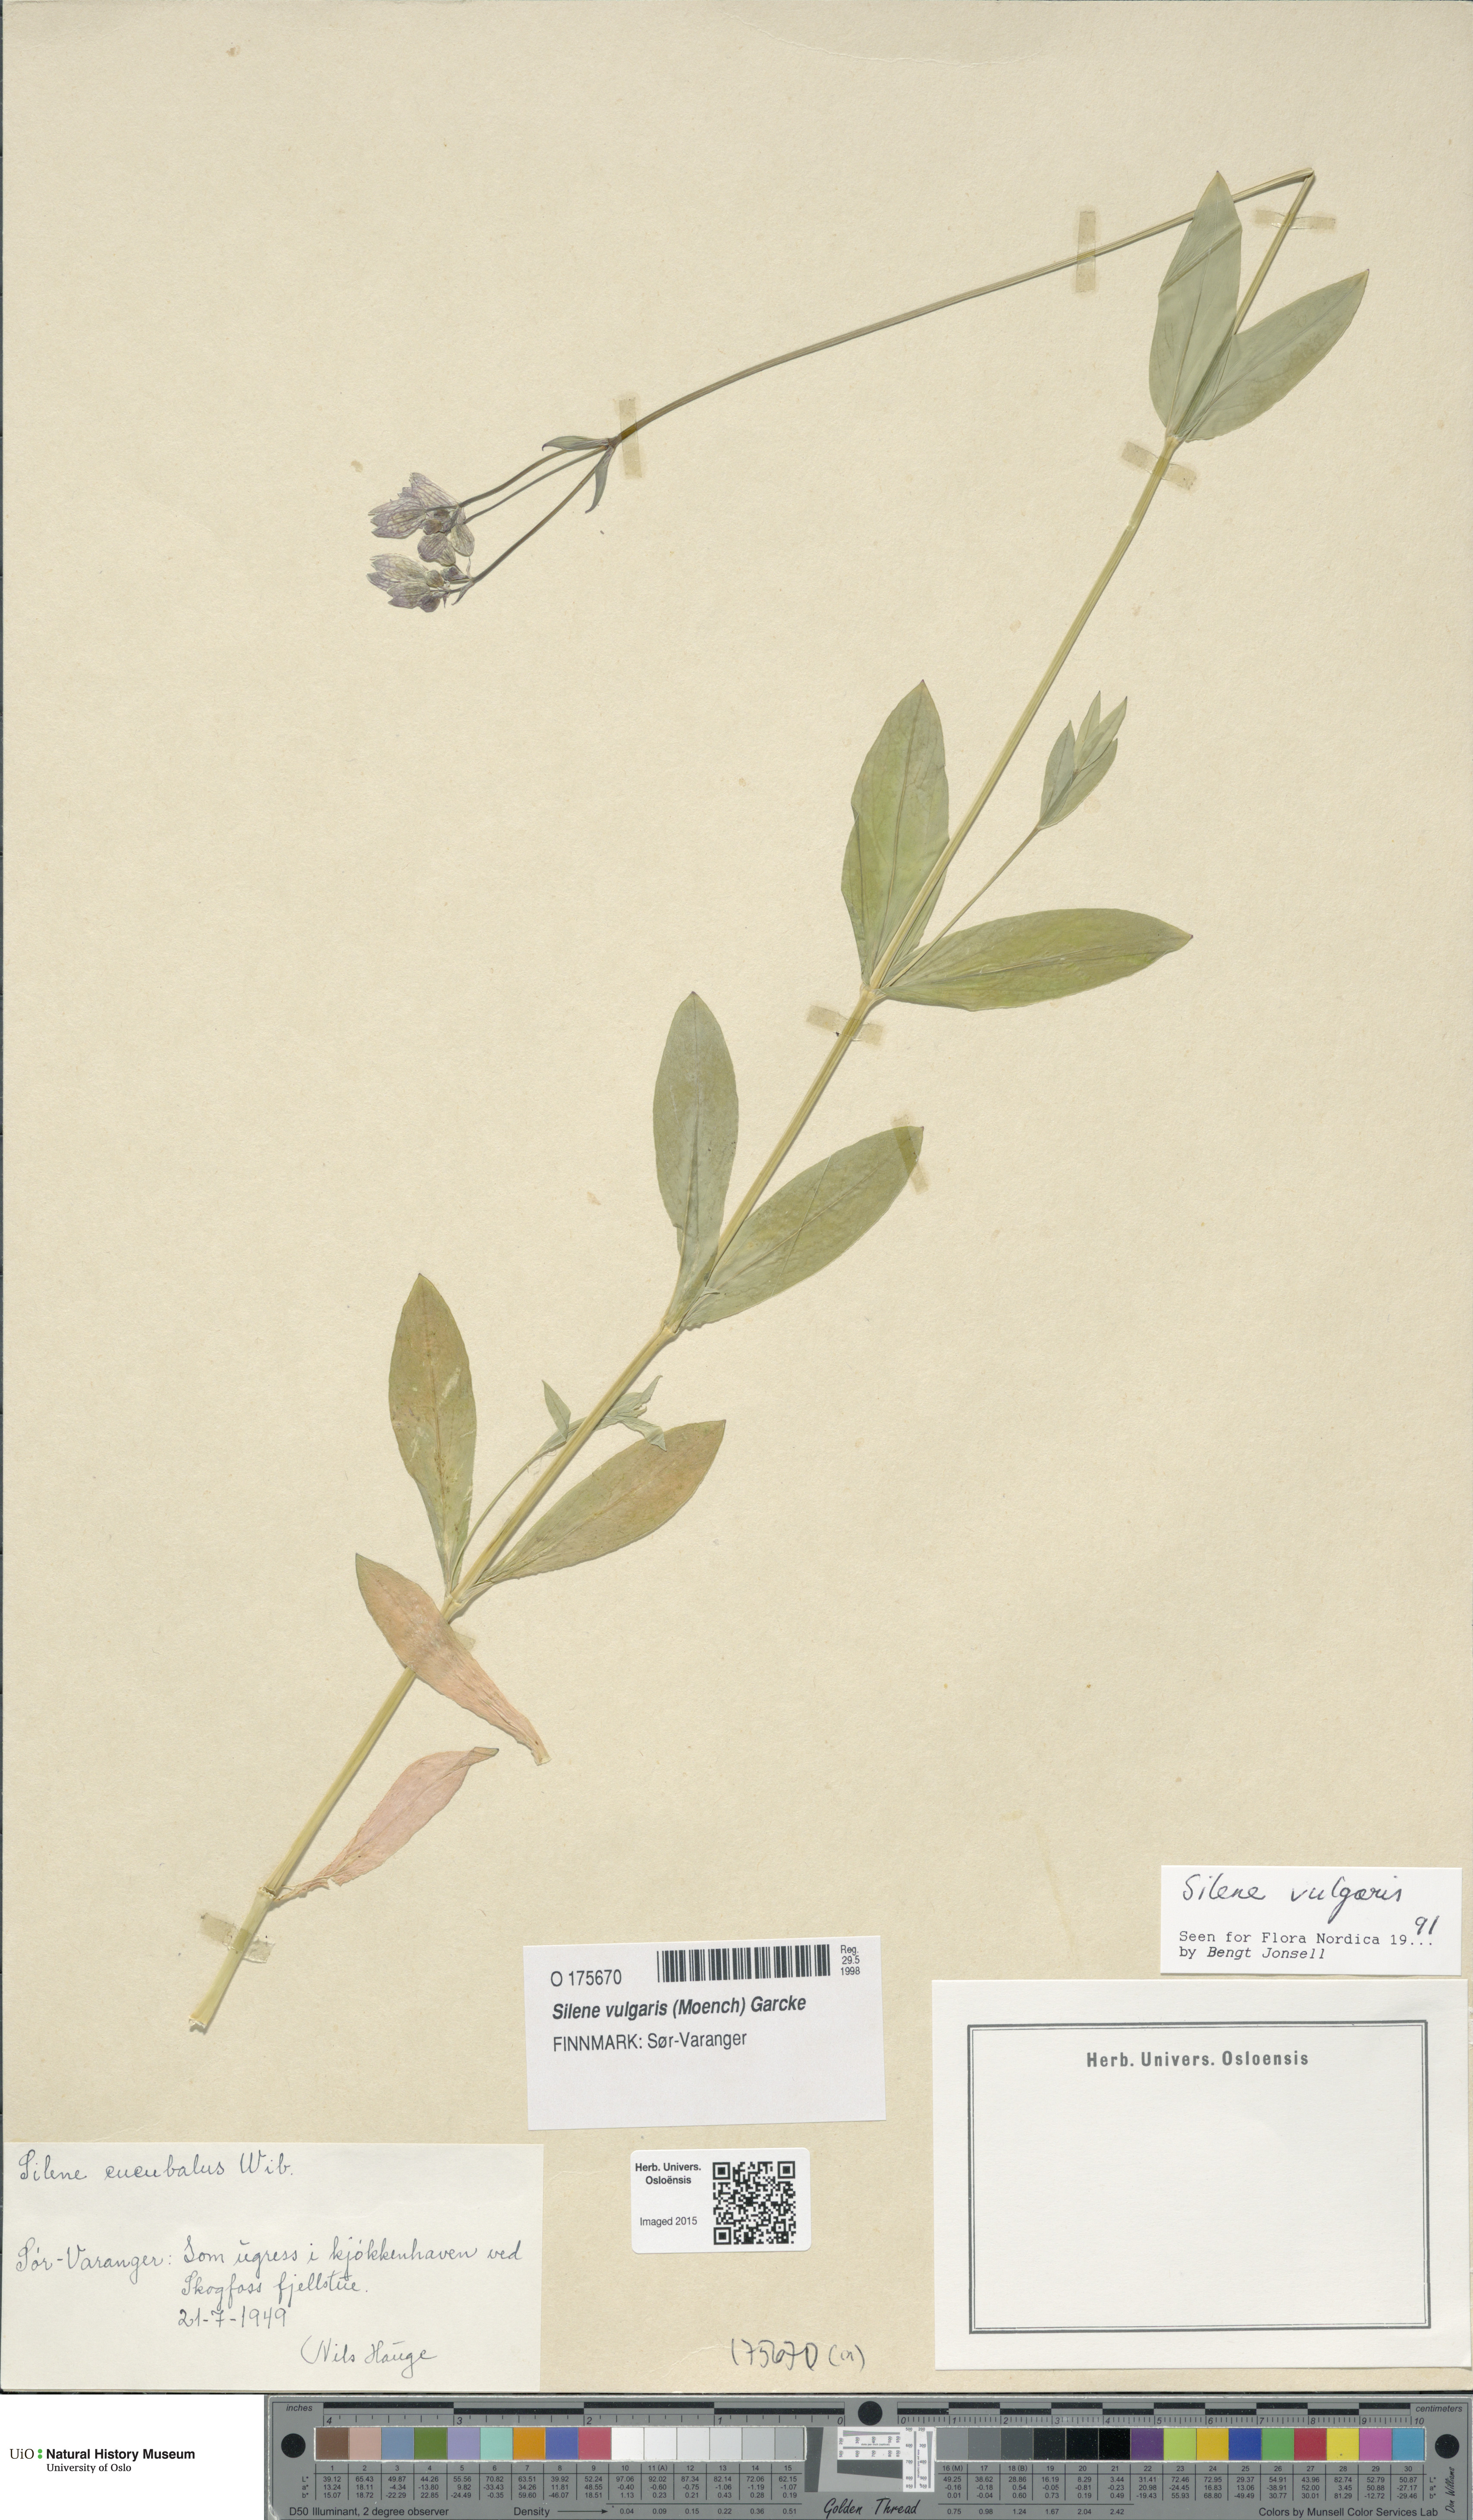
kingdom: Plantae
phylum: Tracheophyta
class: Magnoliopsida
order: Caryophyllales
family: Caryophyllaceae
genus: Silene
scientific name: Silene vulgaris
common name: Bladder campion
